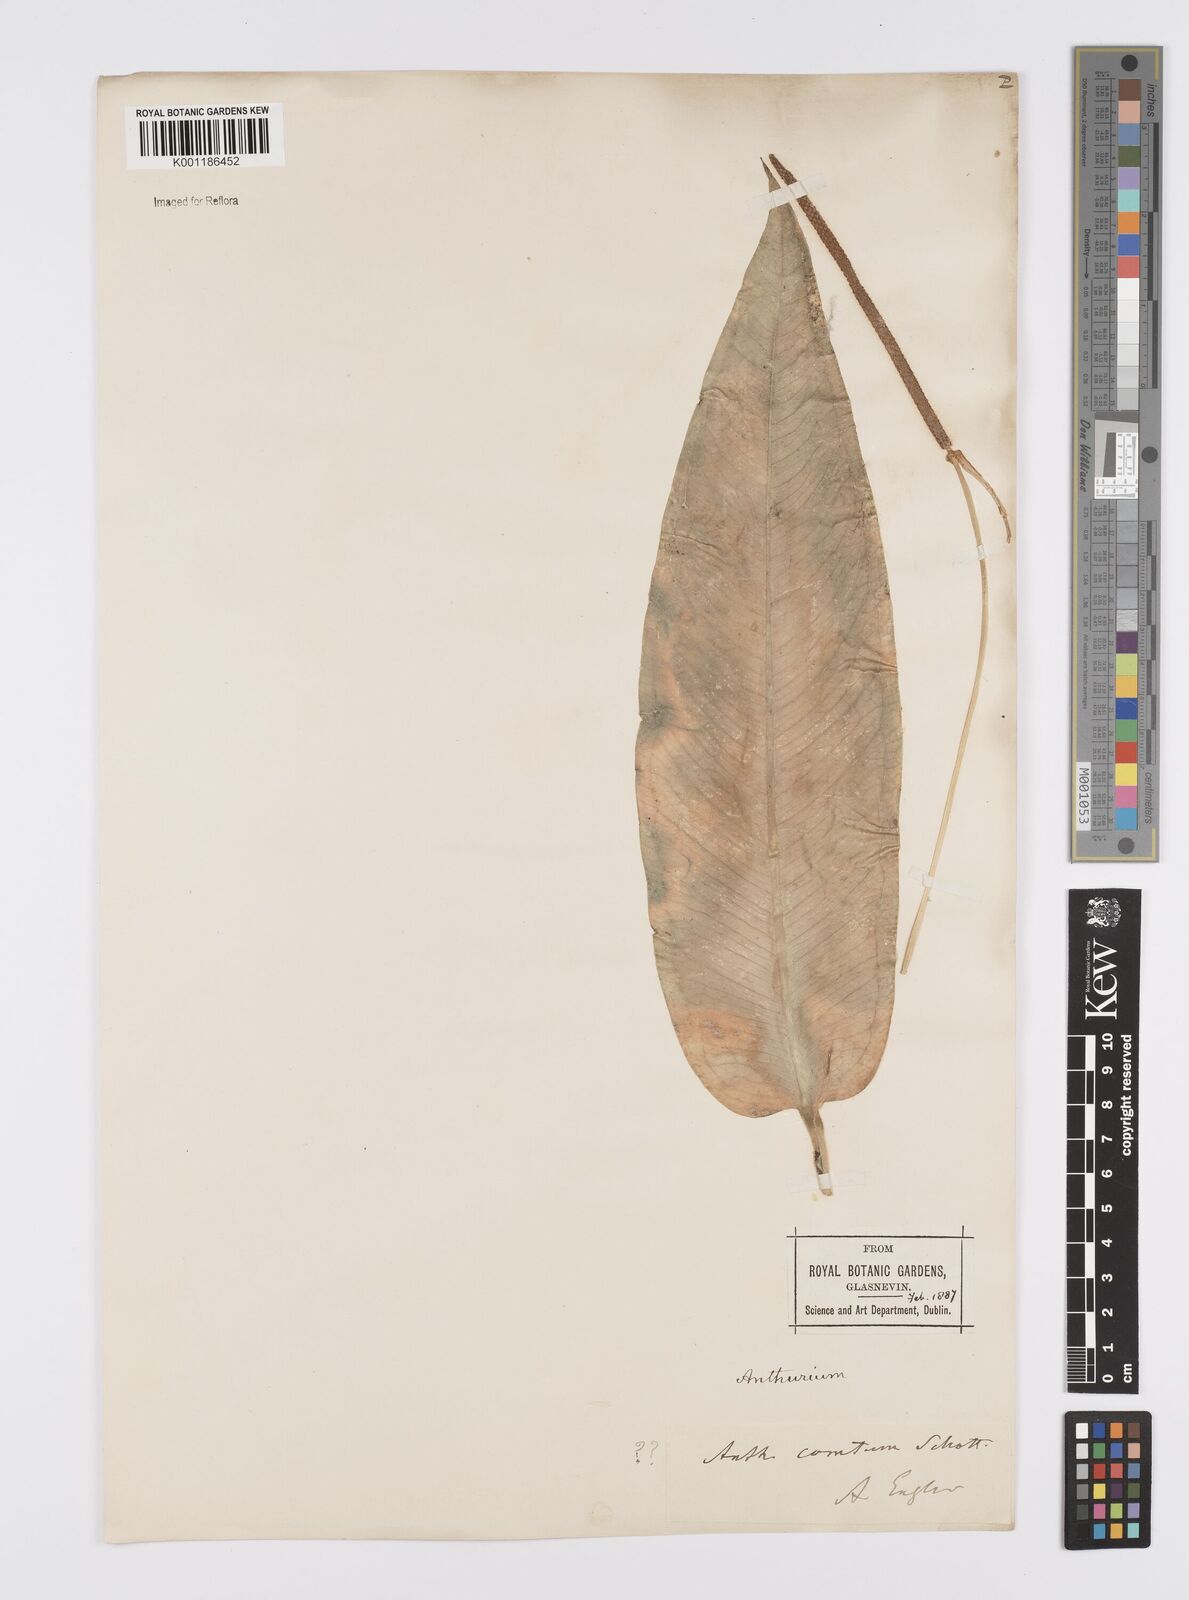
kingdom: Plantae
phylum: Tracheophyta
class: Liliopsida
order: Alismatales
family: Araceae
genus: Anthurium
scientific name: Anthurium comtum
